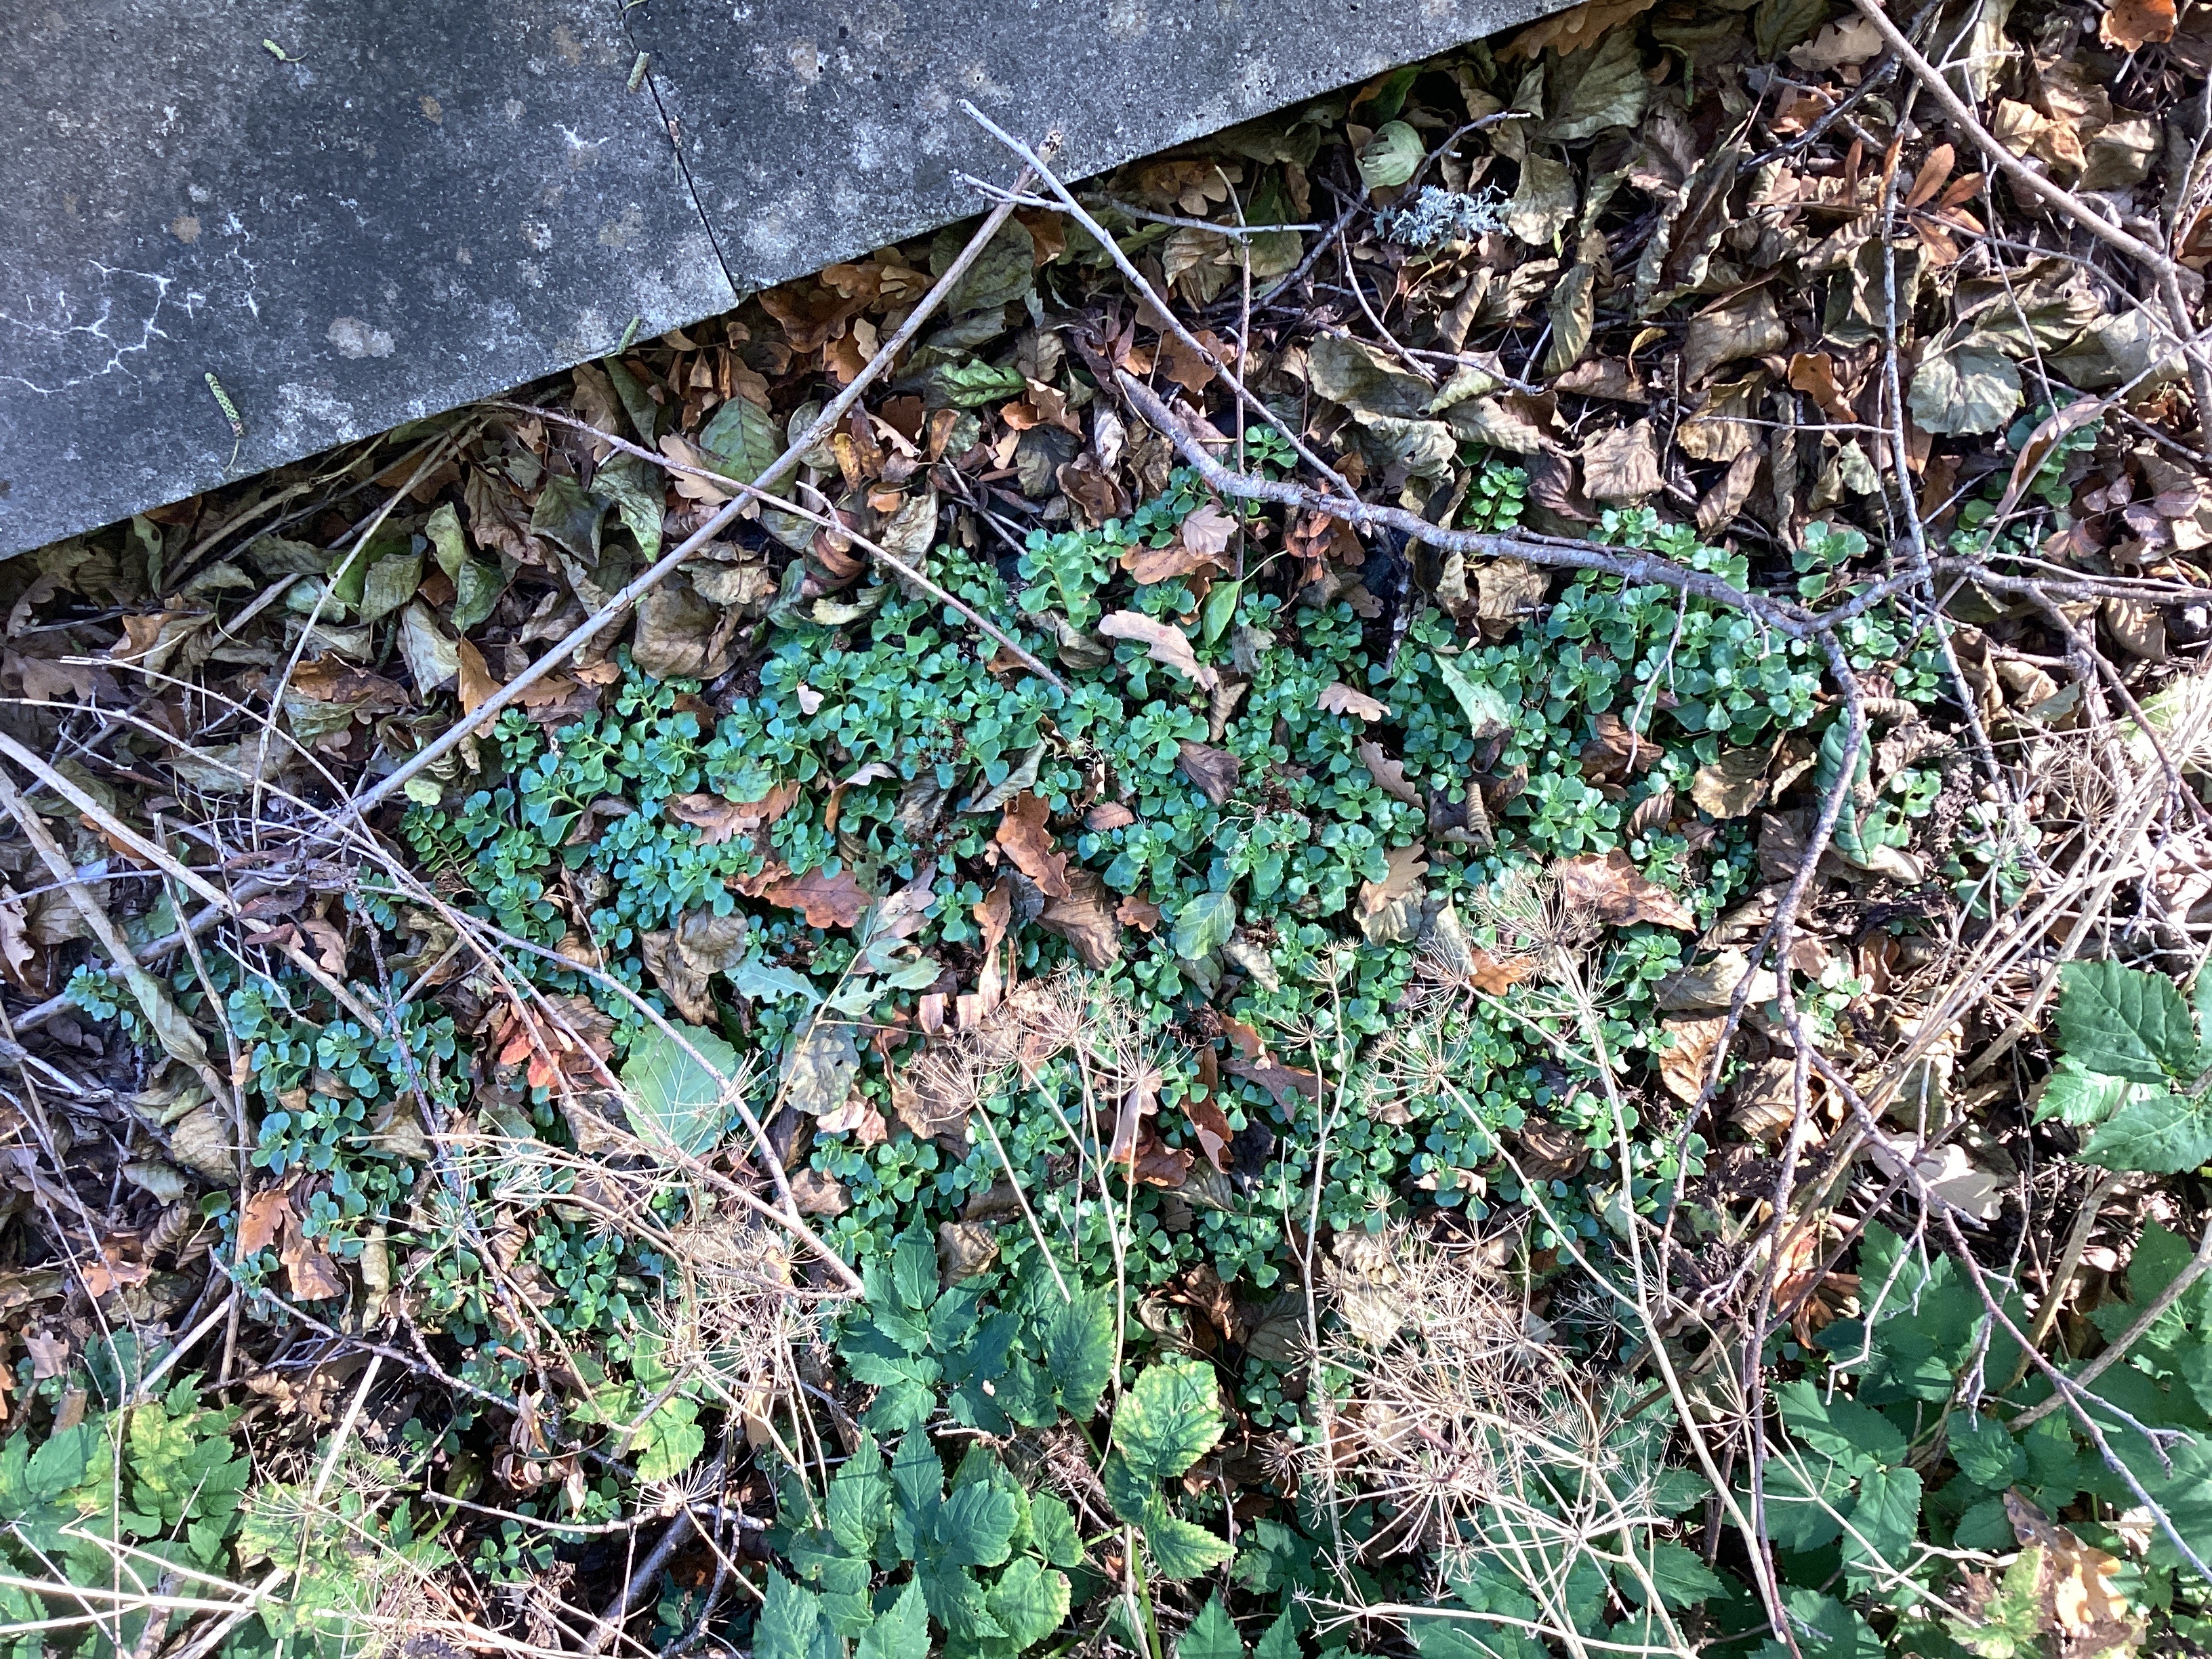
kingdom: Plantae
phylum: Tracheophyta
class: Magnoliopsida
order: Saxifragales
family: Crassulaceae
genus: Phedimus
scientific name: Phedimus spurius
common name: gravbergknapp
